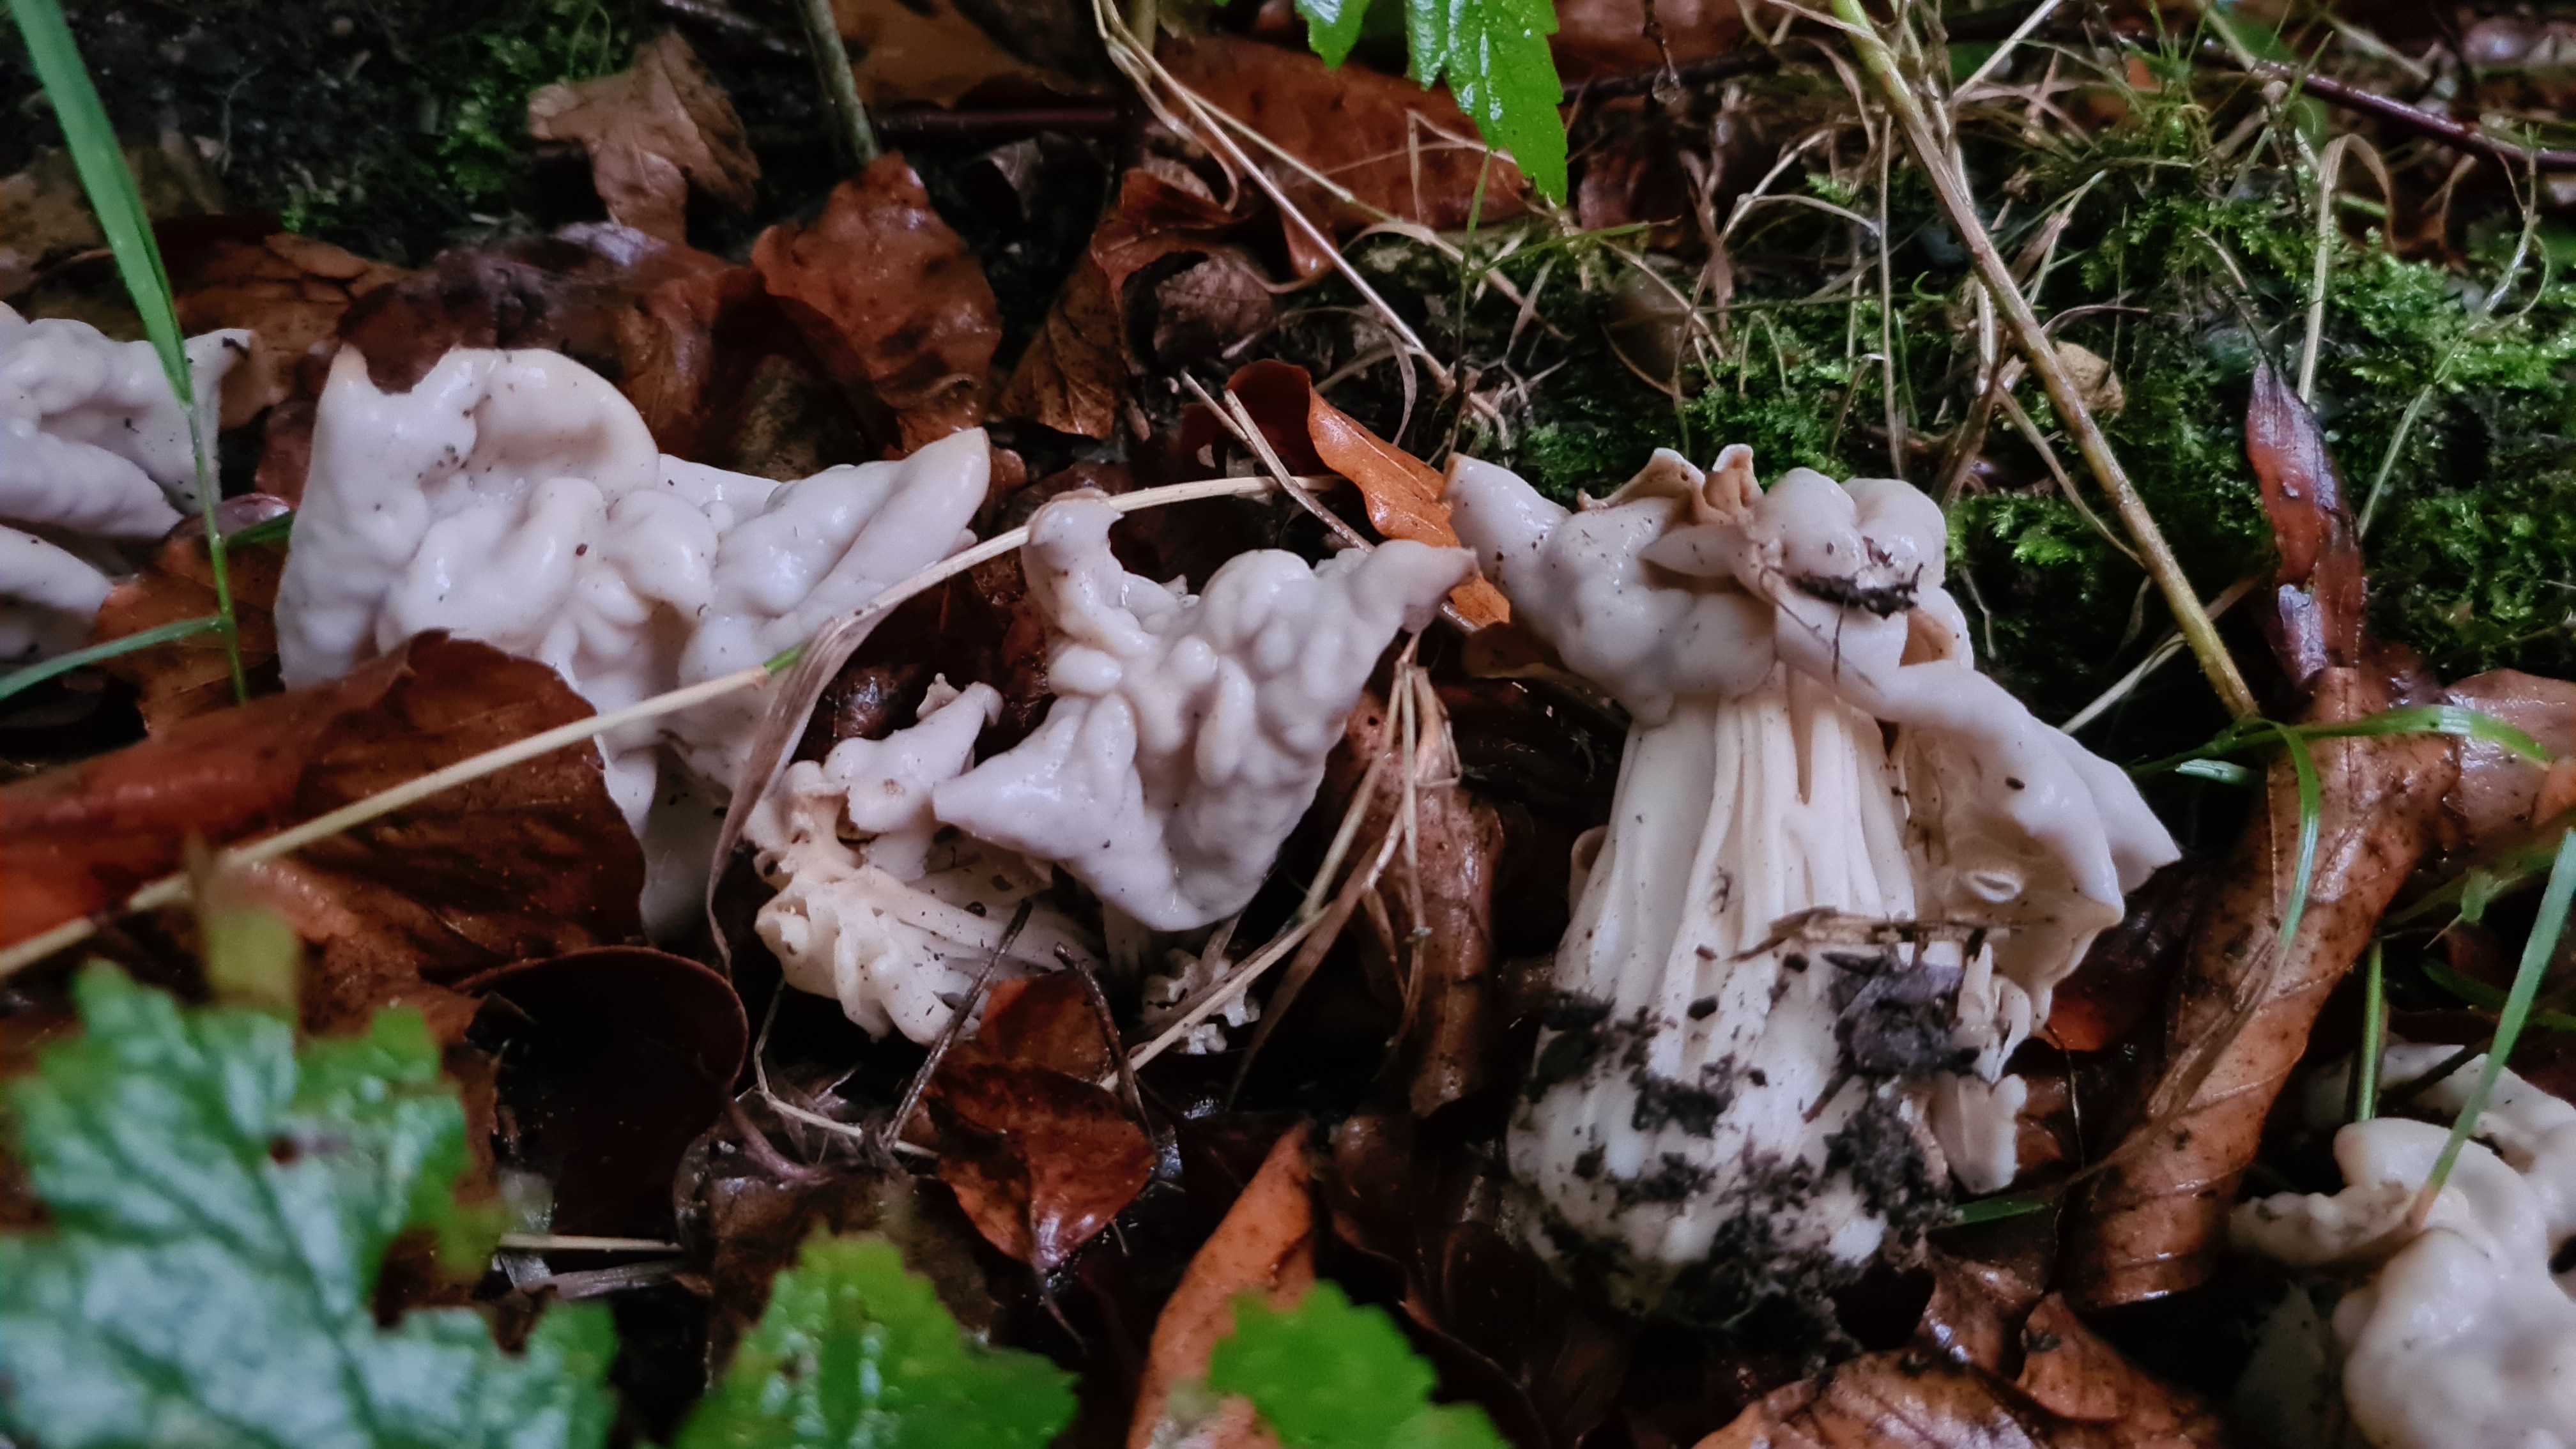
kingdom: Fungi
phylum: Ascomycota
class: Pezizomycetes
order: Pezizales
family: Helvellaceae
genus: Helvella
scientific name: Helvella crispa
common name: kruset foldhat
